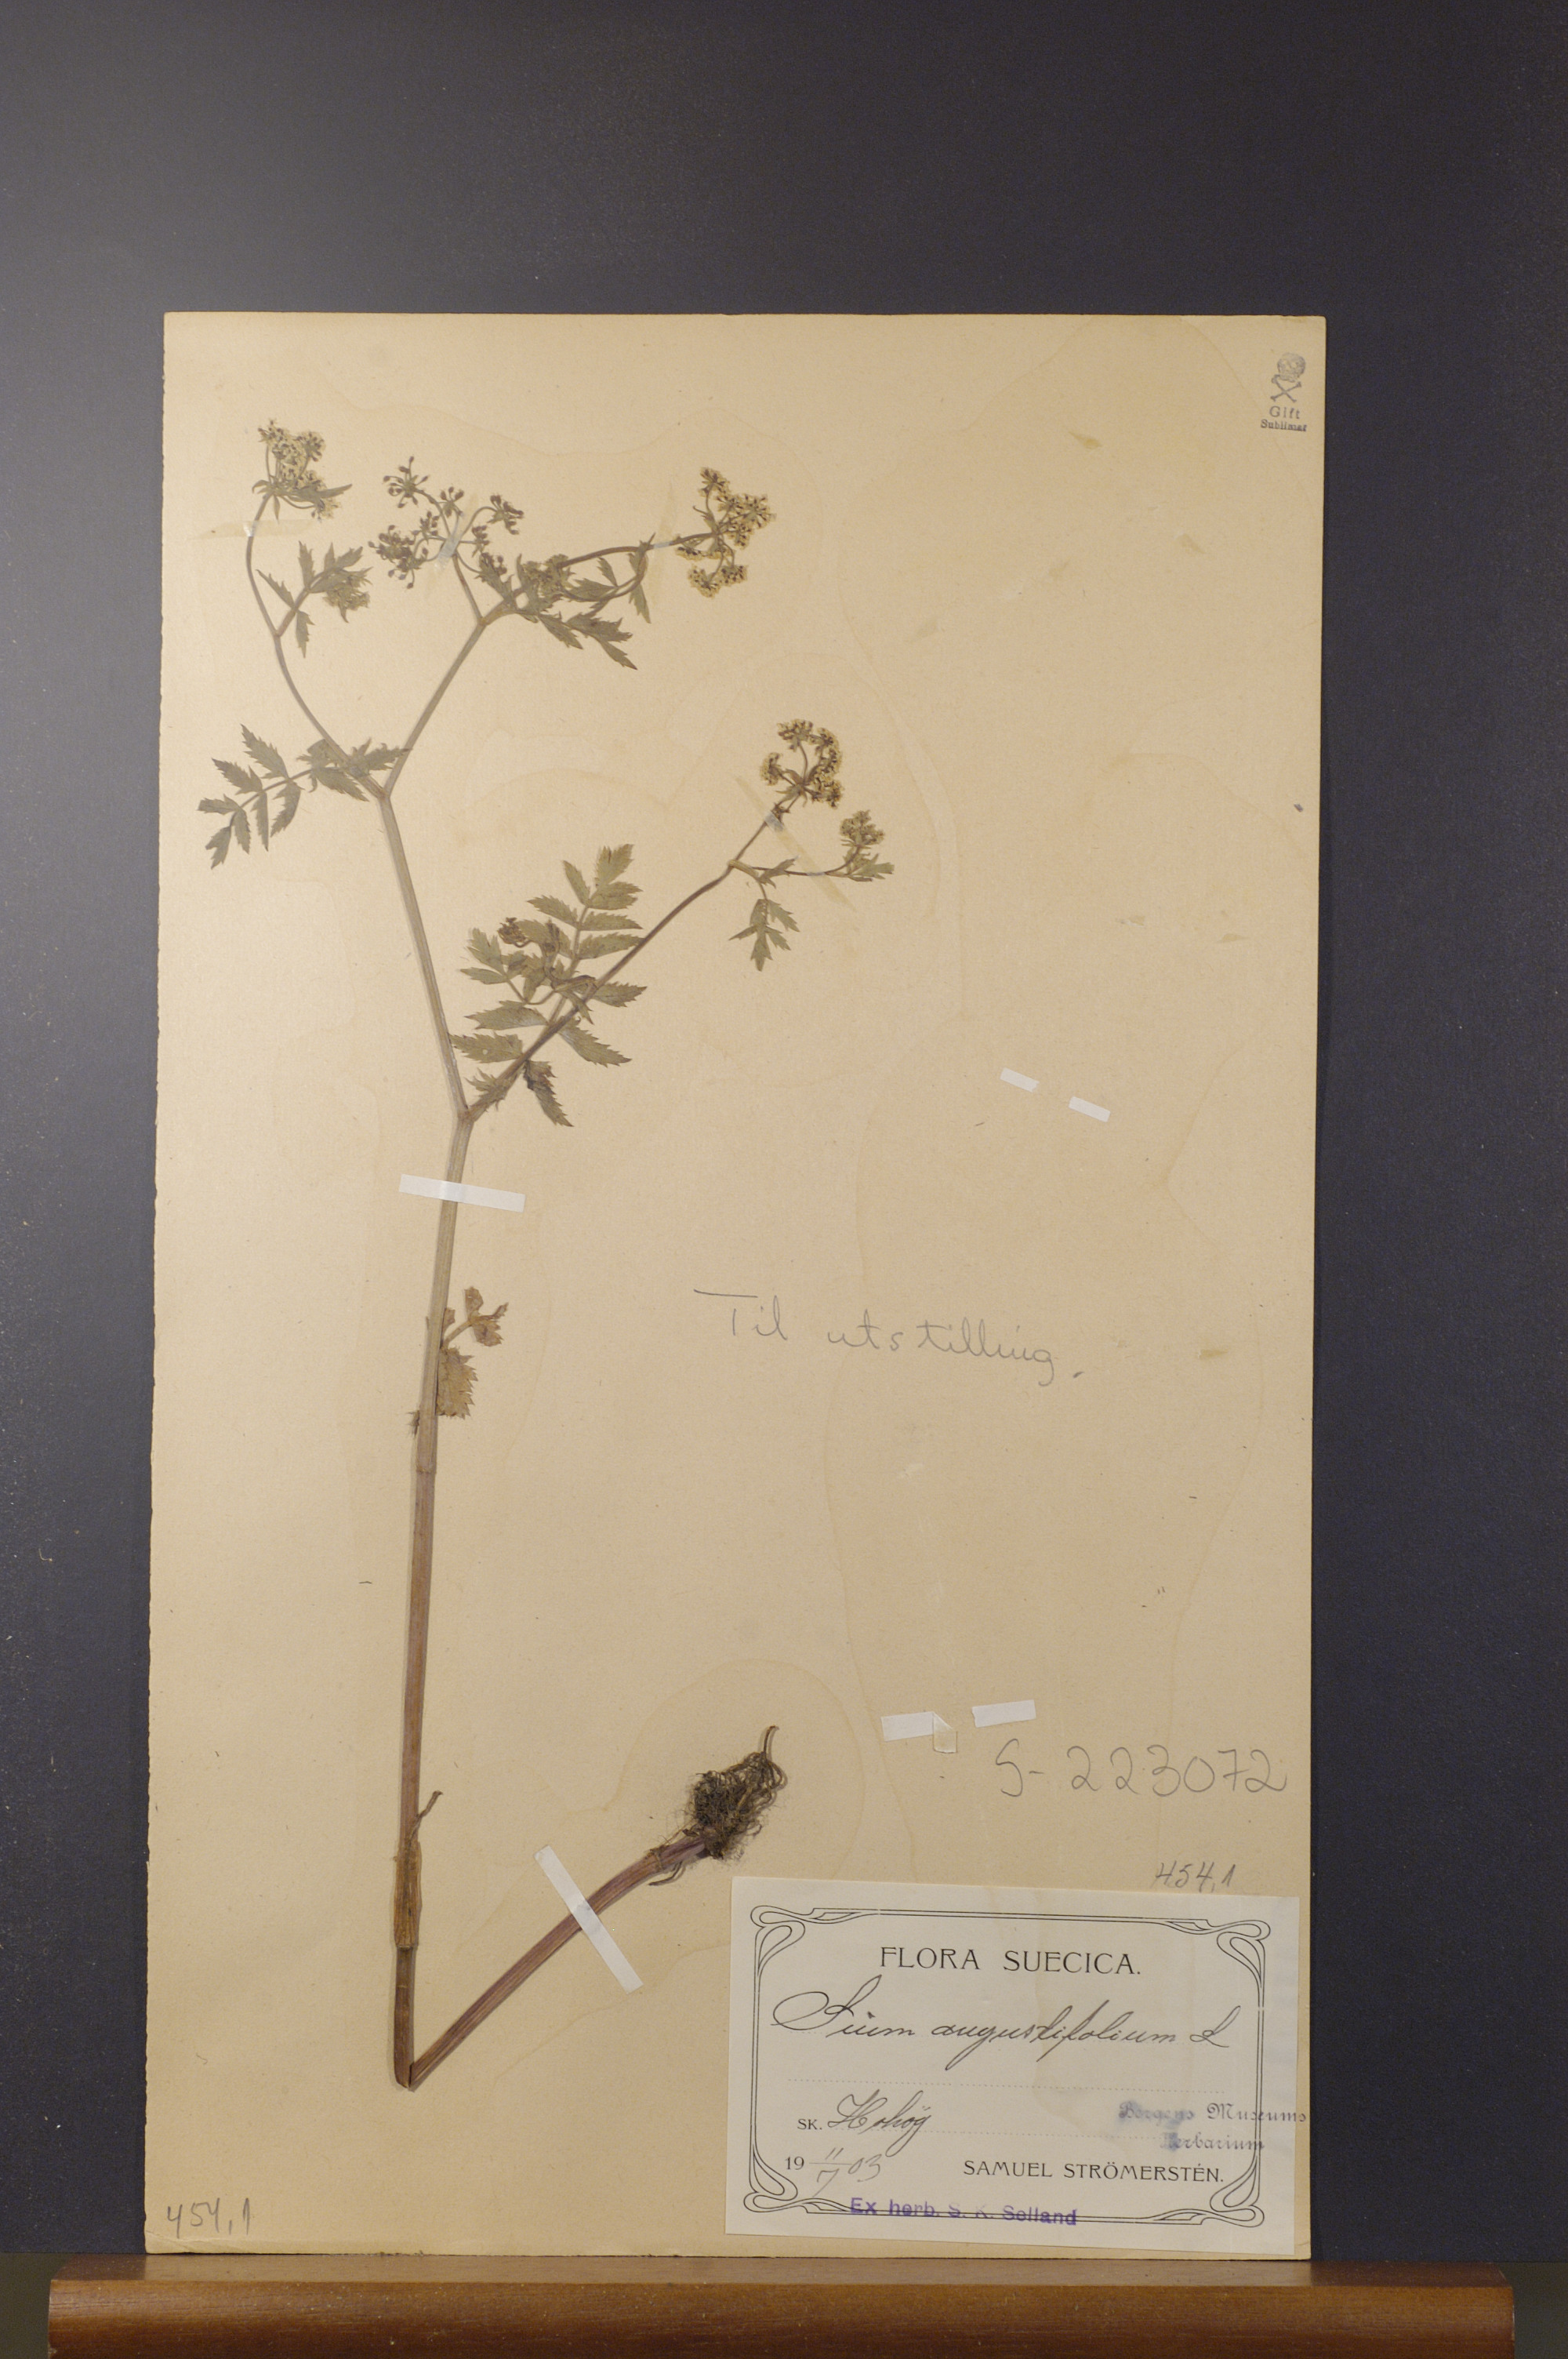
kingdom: Plantae
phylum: Tracheophyta
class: Magnoliopsida
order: Apiales
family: Apiaceae
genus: Berula
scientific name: Berula erecta
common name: Lesser water-parsnip
